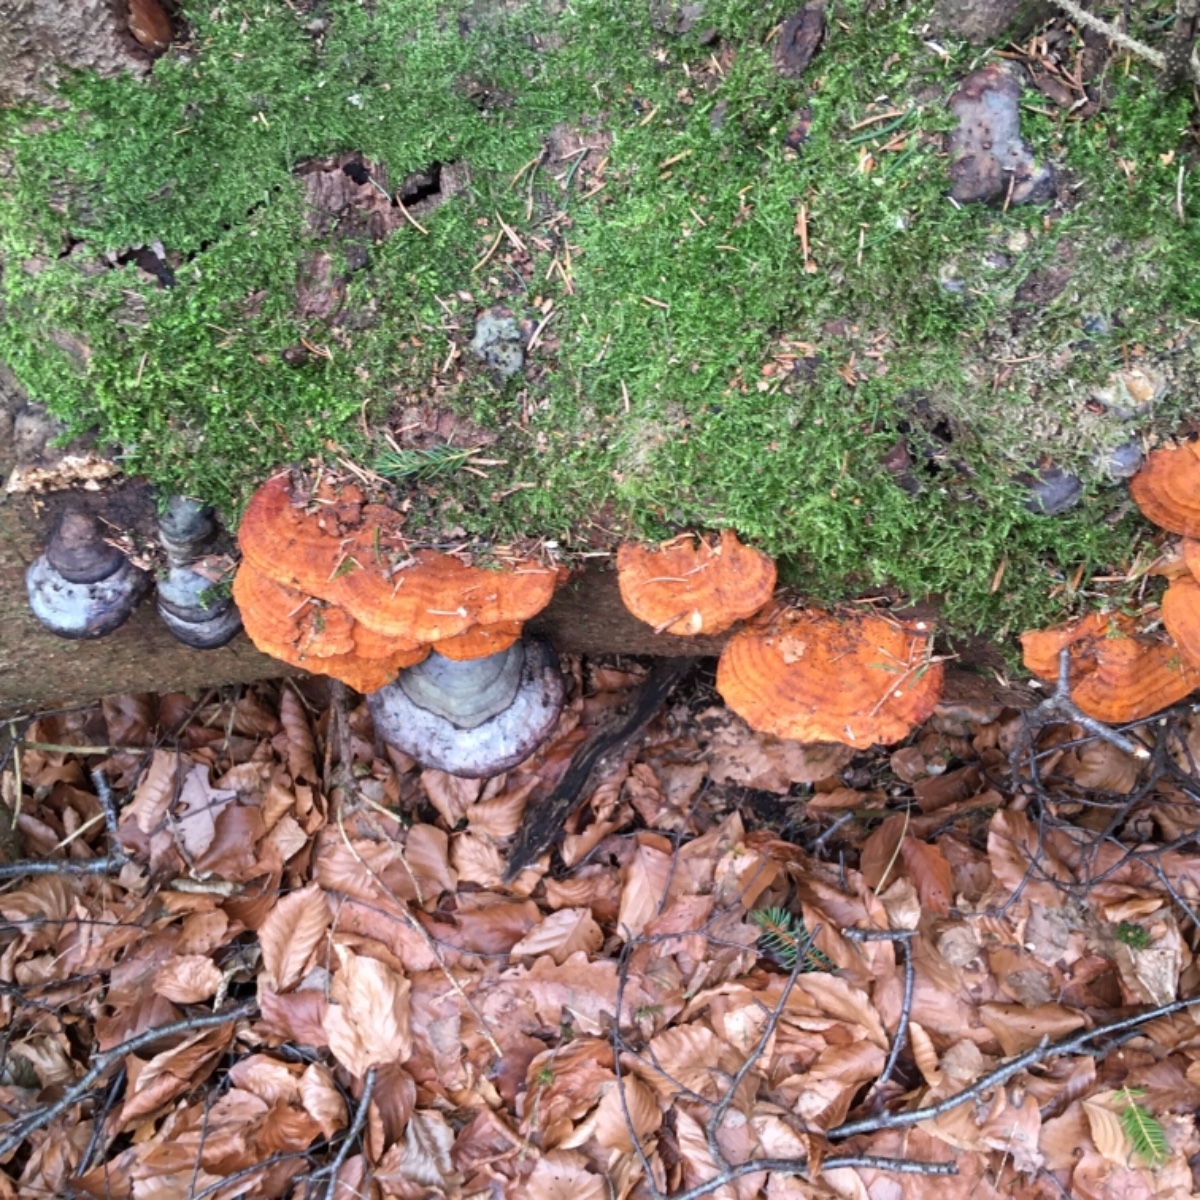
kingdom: Fungi
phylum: Basidiomycota
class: Agaricomycetes
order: Polyporales
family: Pycnoporellaceae
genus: Pycnoporellus
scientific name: Pycnoporellus fulgens
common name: flammeporesvamp
